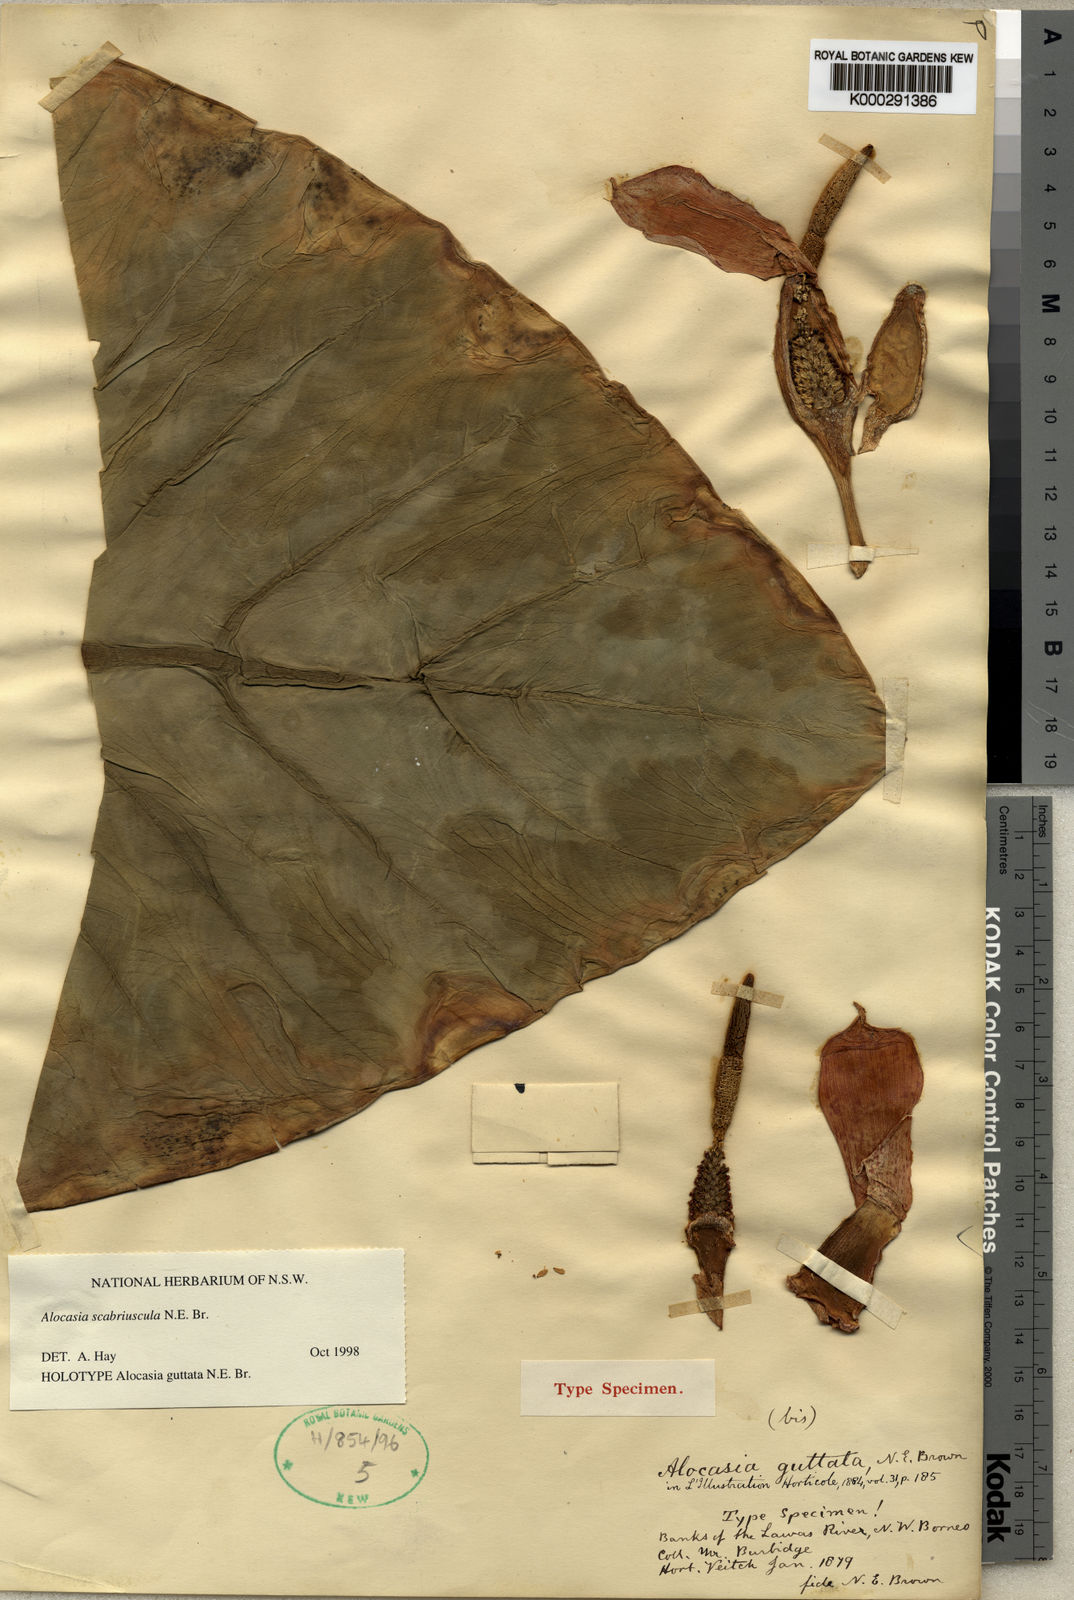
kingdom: Plantae
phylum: Tracheophyta
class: Liliopsida
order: Alismatales
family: Araceae
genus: Alocasia
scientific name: Alocasia scabriuscula
